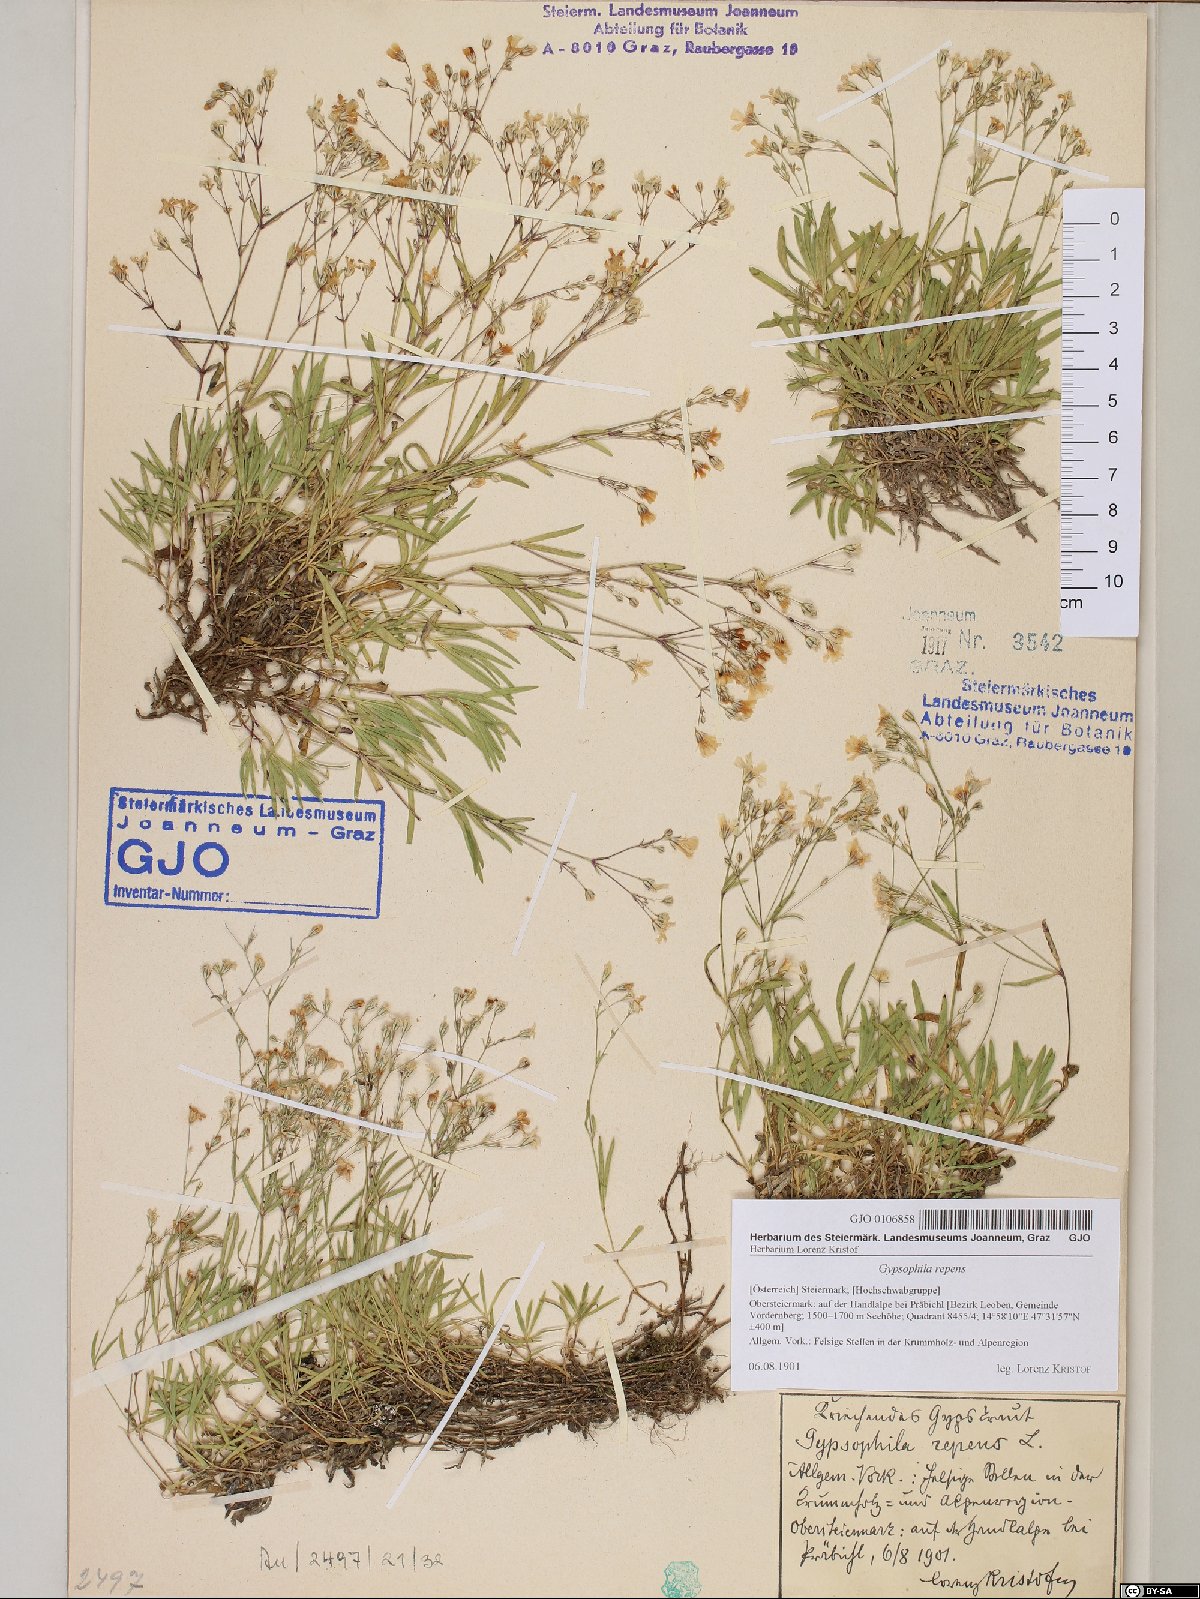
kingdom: Plantae
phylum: Tracheophyta
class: Magnoliopsida
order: Caryophyllales
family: Caryophyllaceae
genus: Gypsophila
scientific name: Gypsophila repens
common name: Creeping baby's-breath
